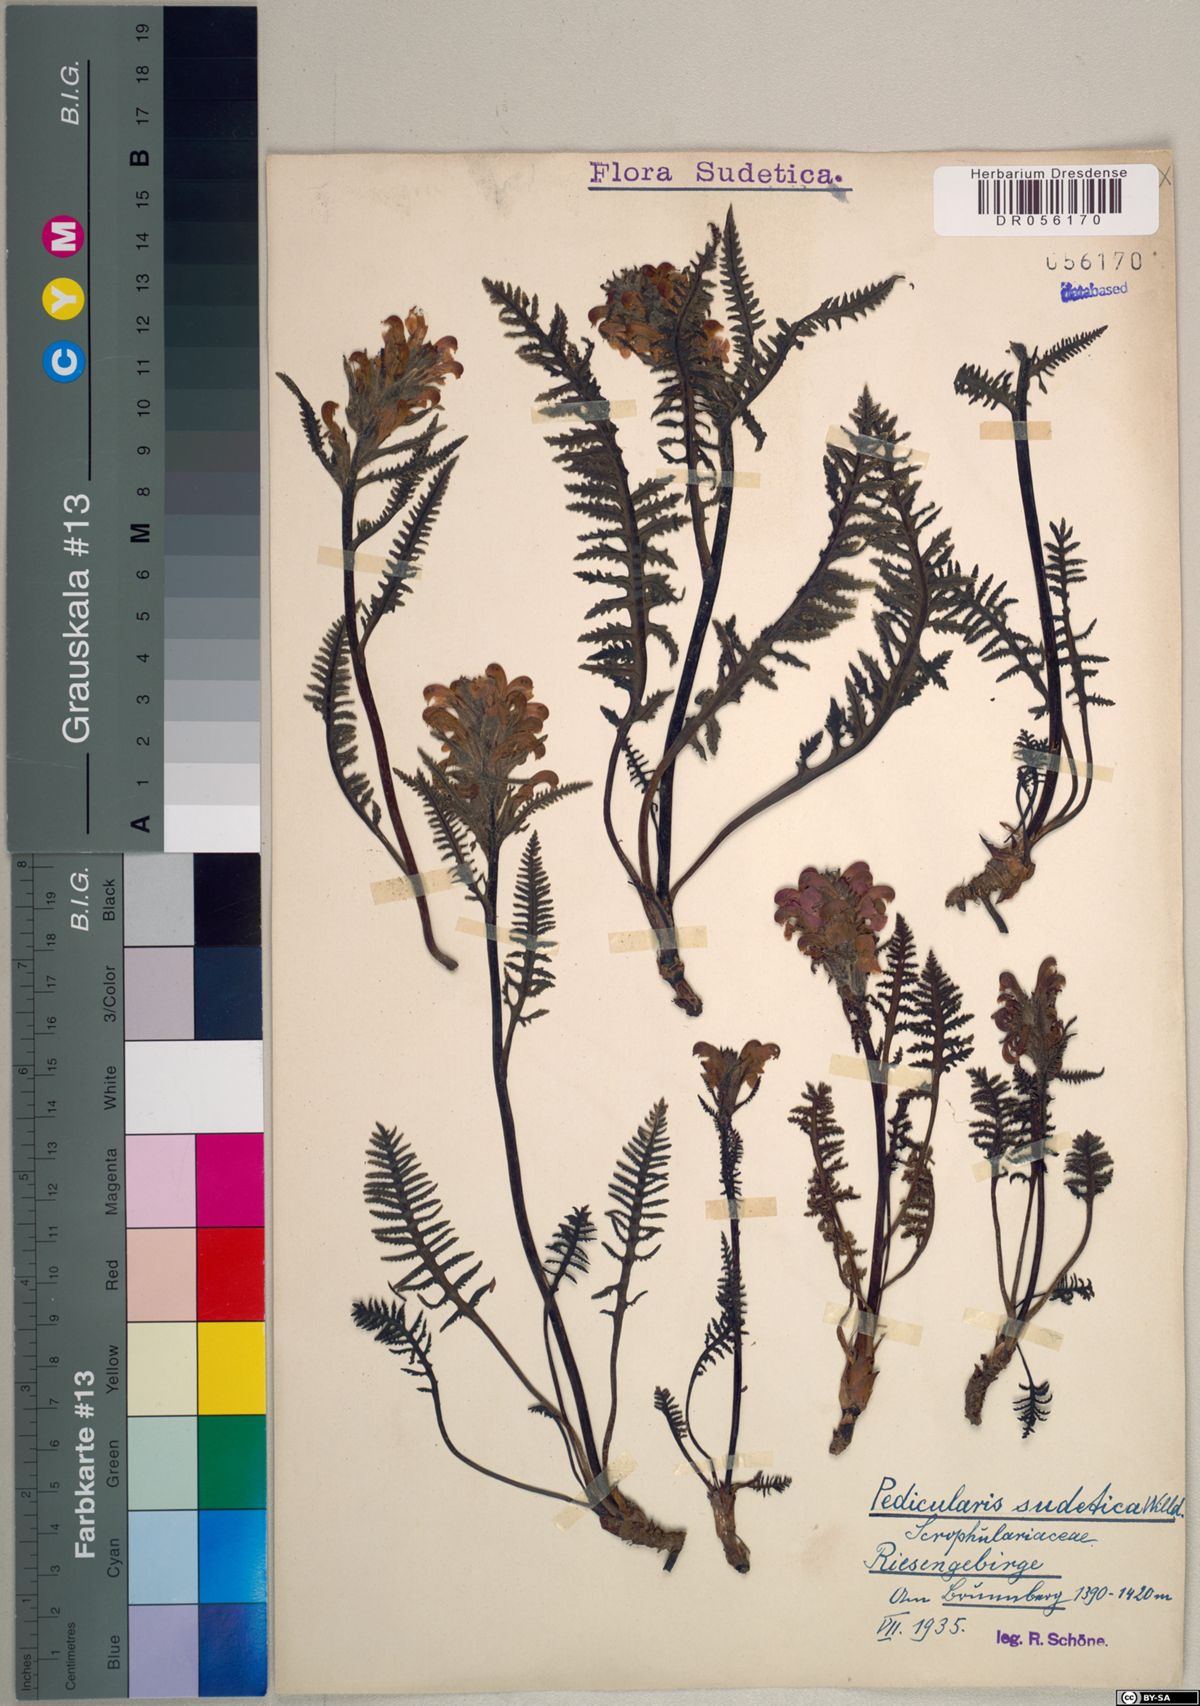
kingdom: Plantae
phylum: Tracheophyta
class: Magnoliopsida
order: Lamiales
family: Orobanchaceae
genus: Pedicularis
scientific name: Pedicularis sudetica
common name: Sudeten lousewort
